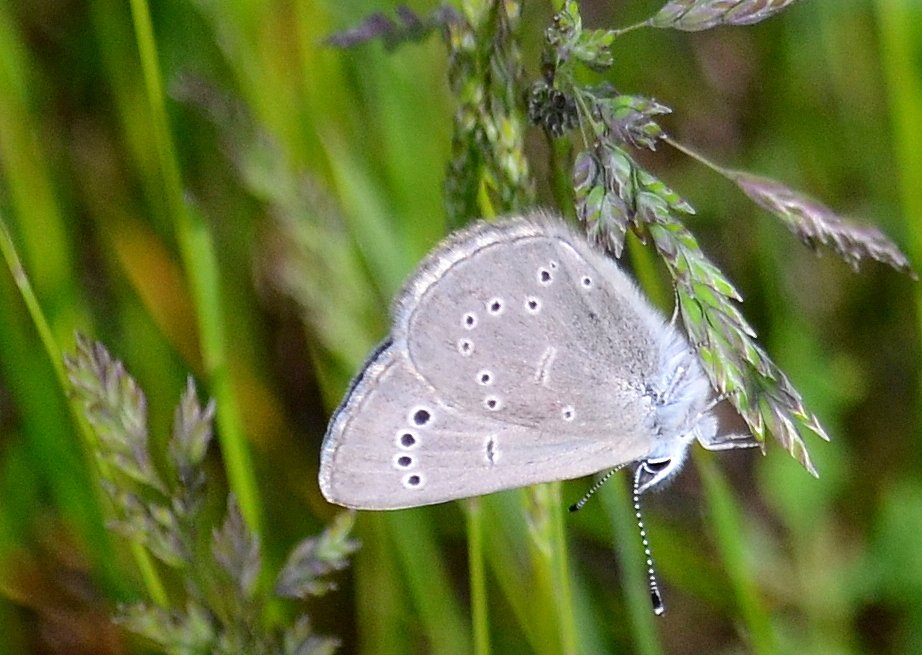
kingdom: Animalia
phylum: Arthropoda
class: Insecta
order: Lepidoptera
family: Lycaenidae
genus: Glaucopsyche
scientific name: Glaucopsyche lygdamus
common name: Silvery Blue
